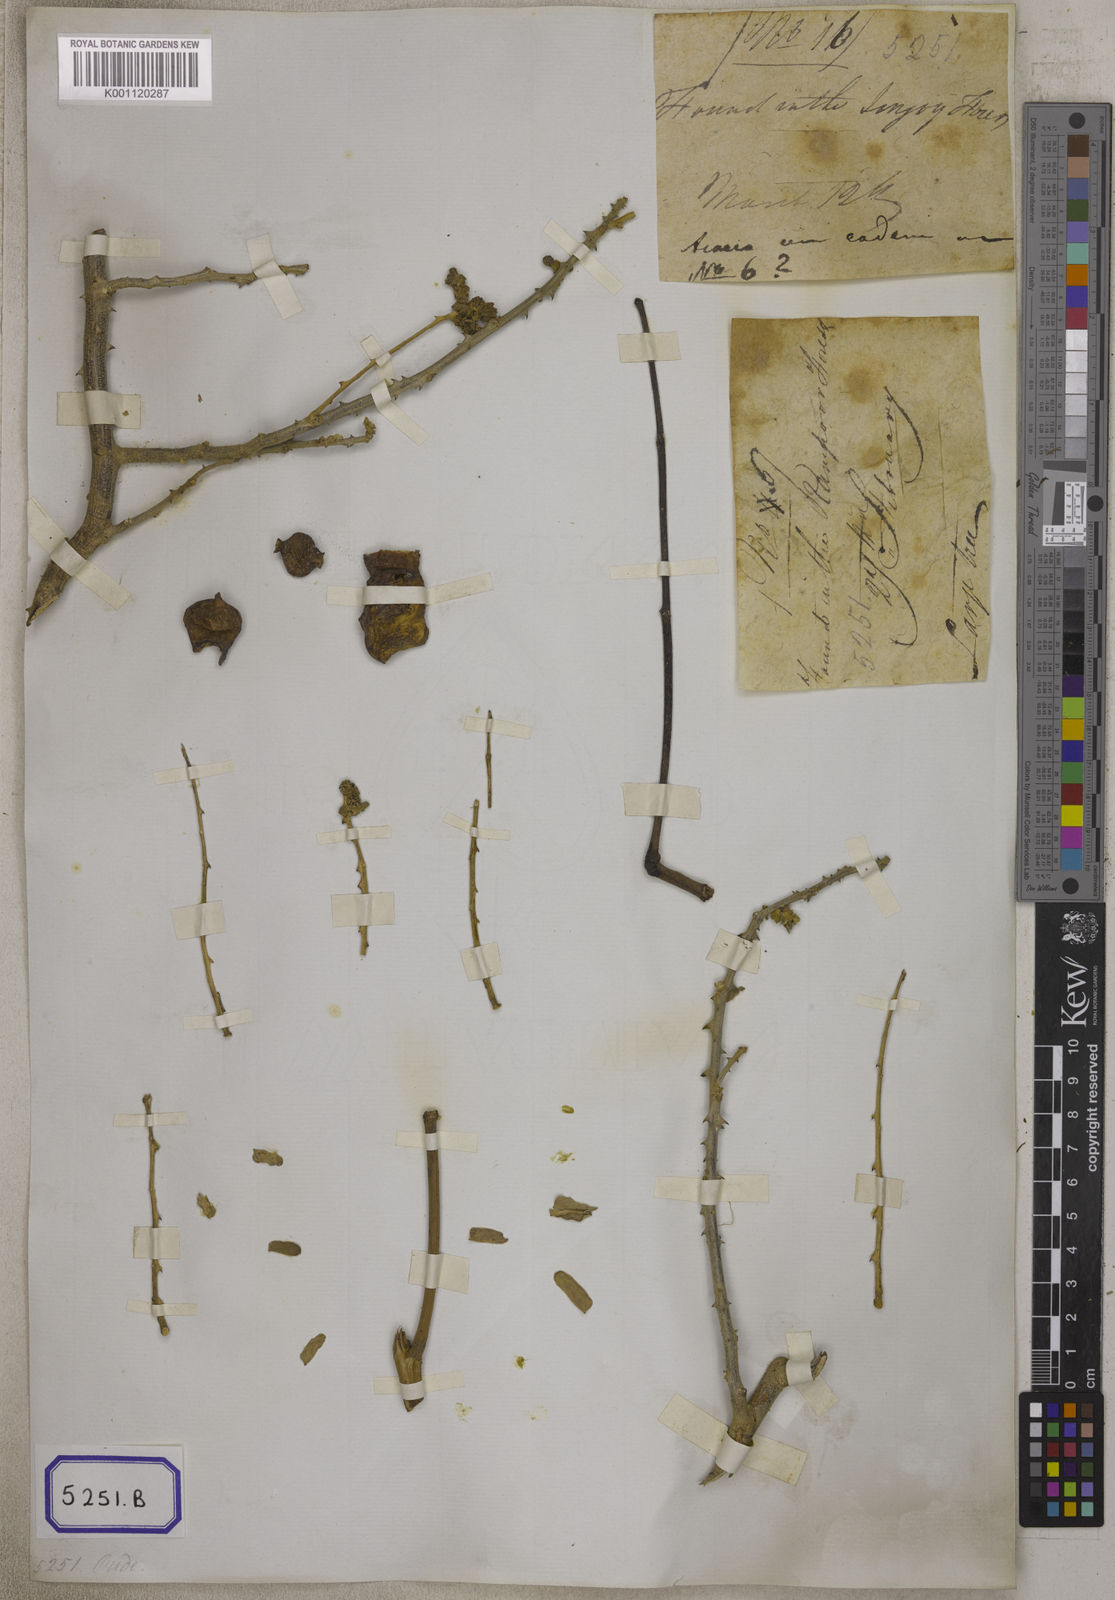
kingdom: Plantae
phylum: Tracheophyta
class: Magnoliopsida
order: Fabales
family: Fabaceae
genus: Acacia
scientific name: Acacia
